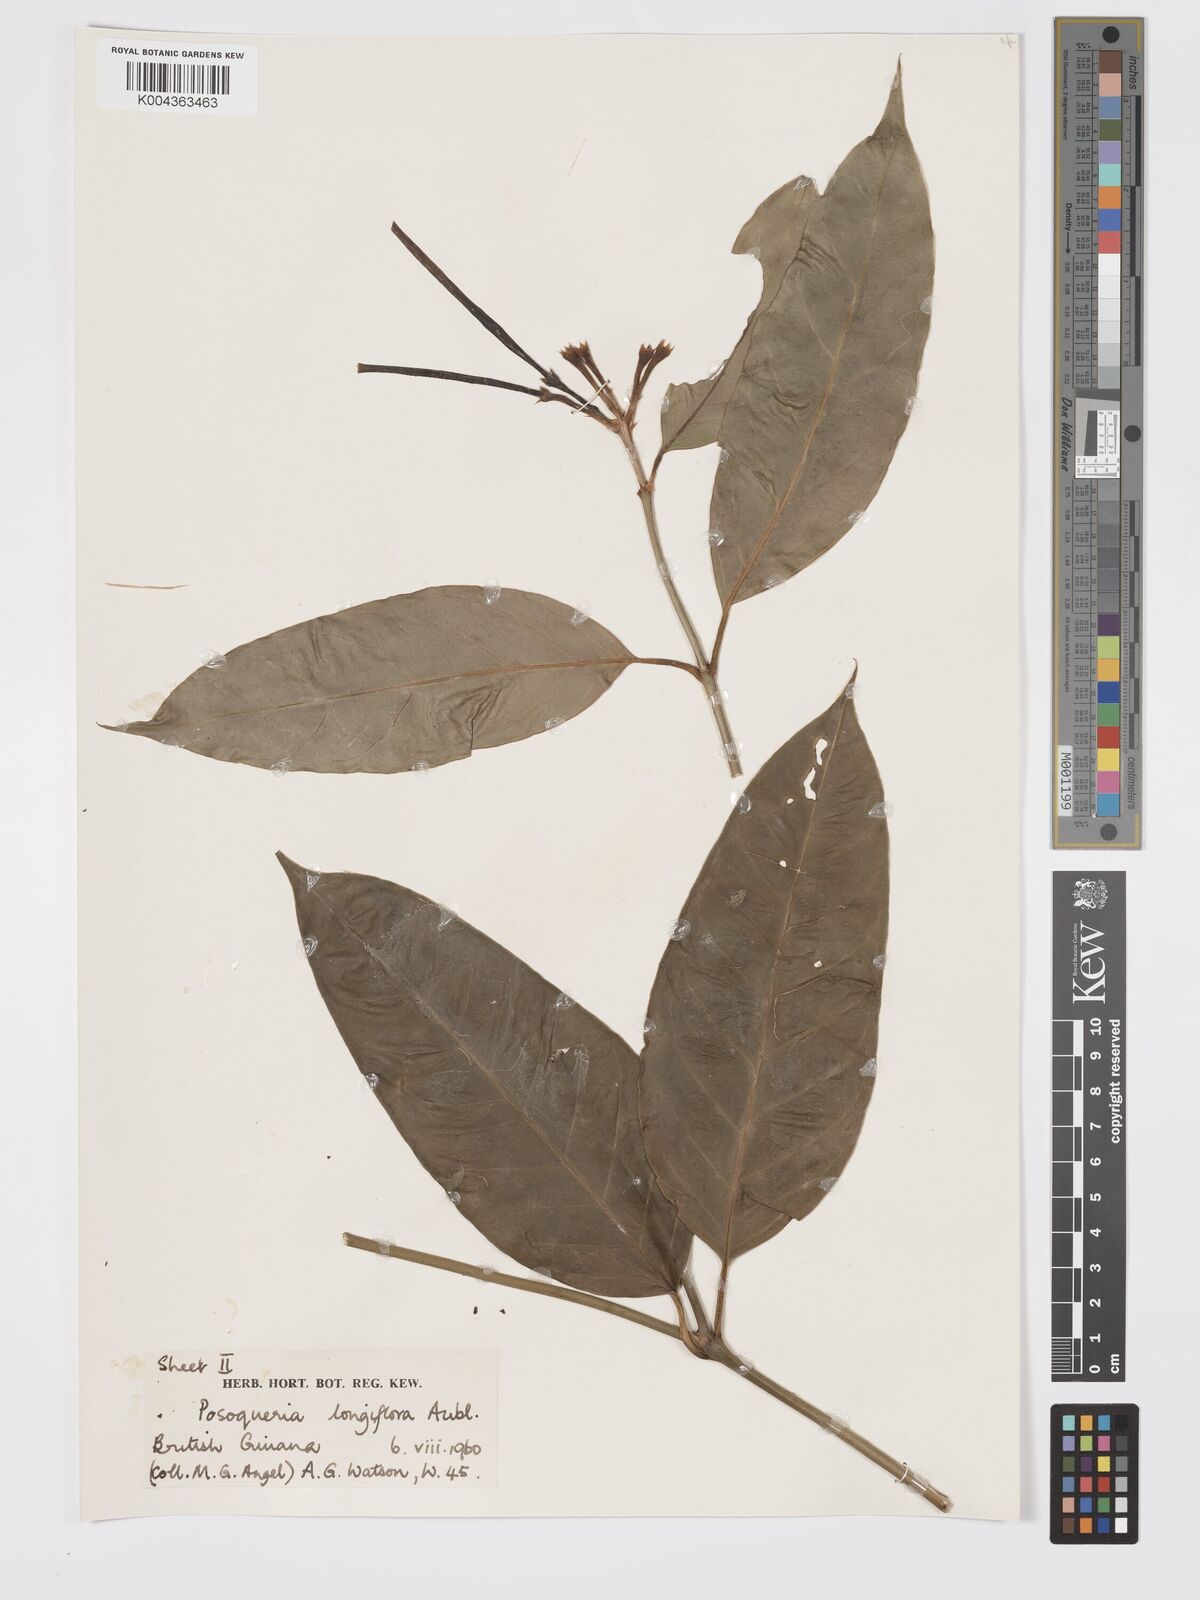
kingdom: Plantae
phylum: Tracheophyta
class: Magnoliopsida
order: Gentianales
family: Rubiaceae
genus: Posoqueria
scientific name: Posoqueria
